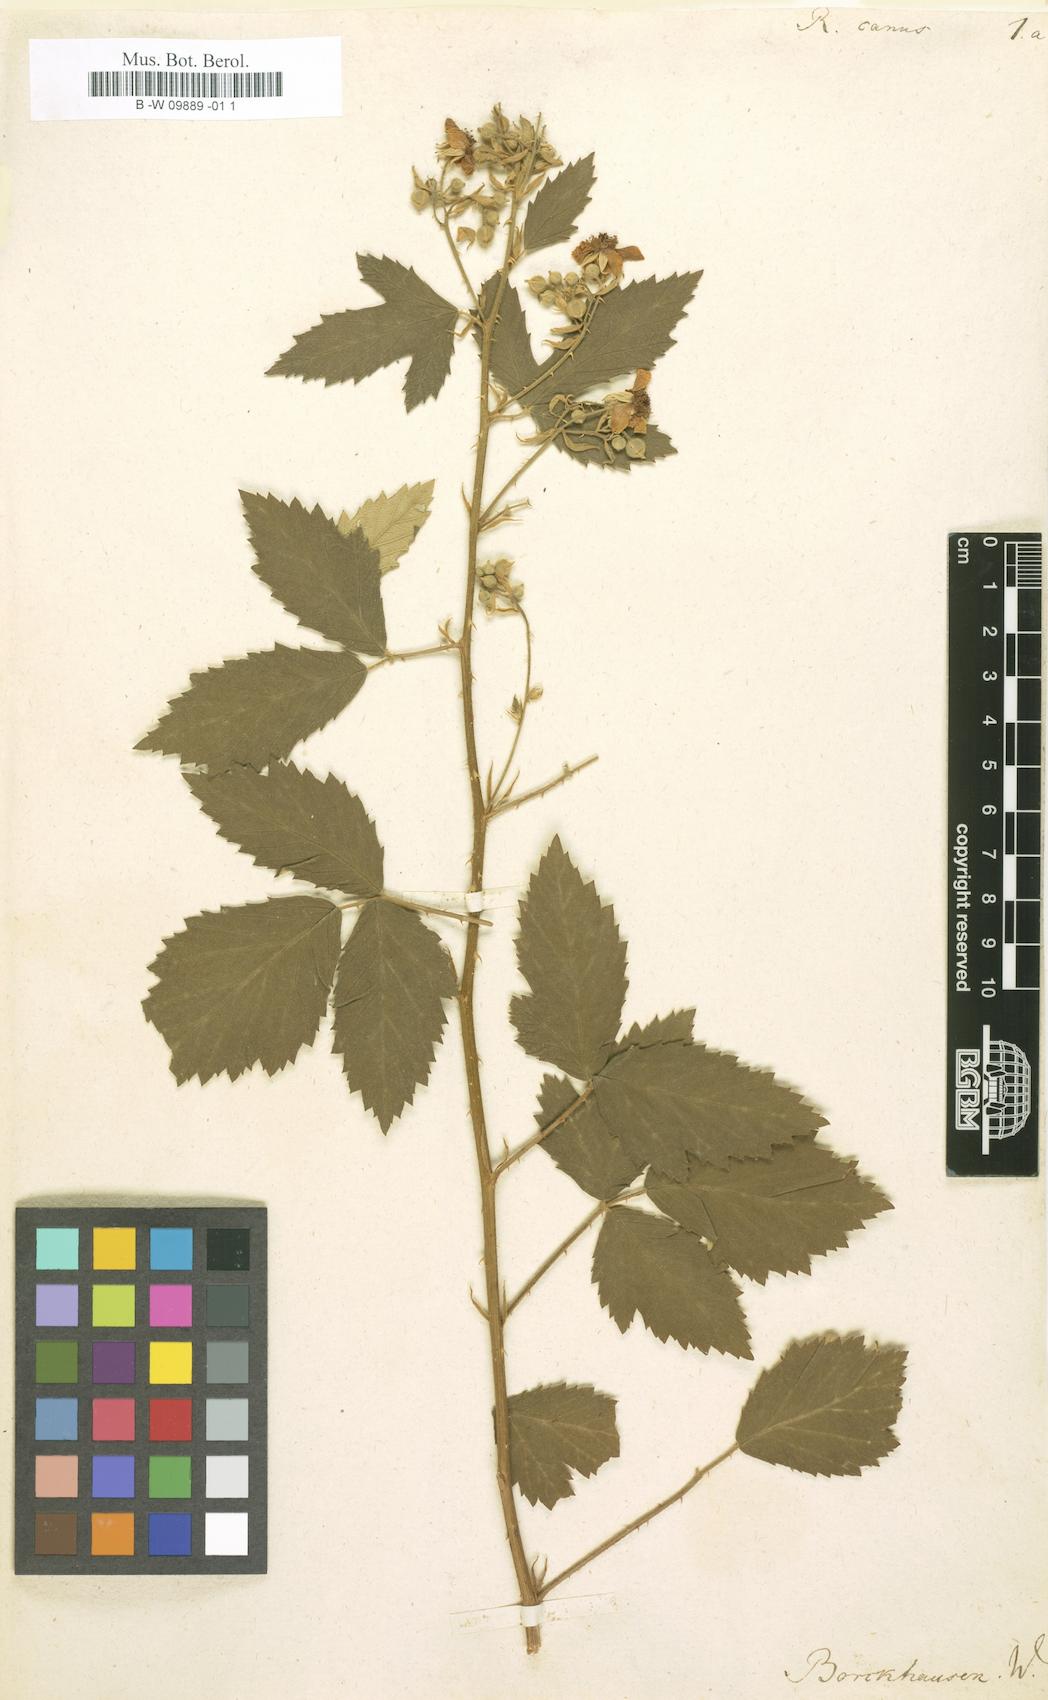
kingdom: Plantae
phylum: Tracheophyta
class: Magnoliopsida
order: Rosales
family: Rosaceae
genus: Rubus
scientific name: Rubus canus
